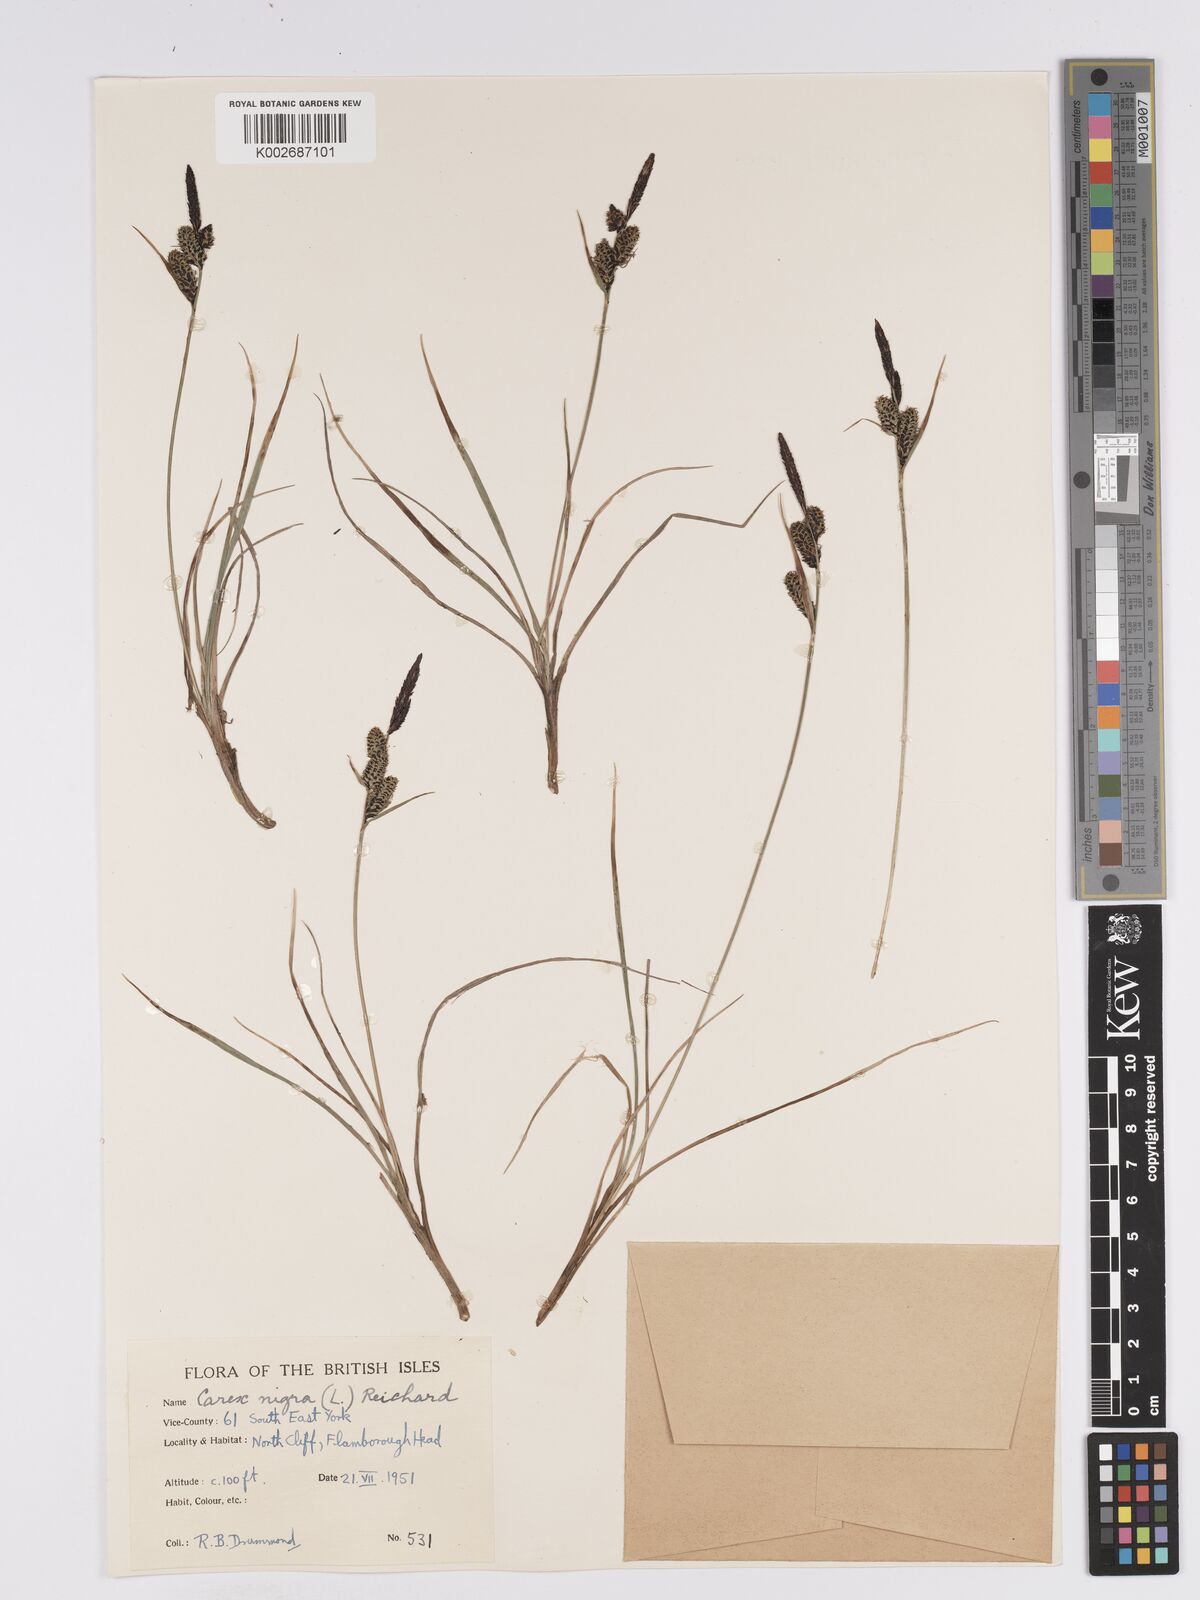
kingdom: Plantae
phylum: Tracheophyta
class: Liliopsida
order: Poales
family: Cyperaceae
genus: Carex
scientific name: Carex nigra
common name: Common sedge
